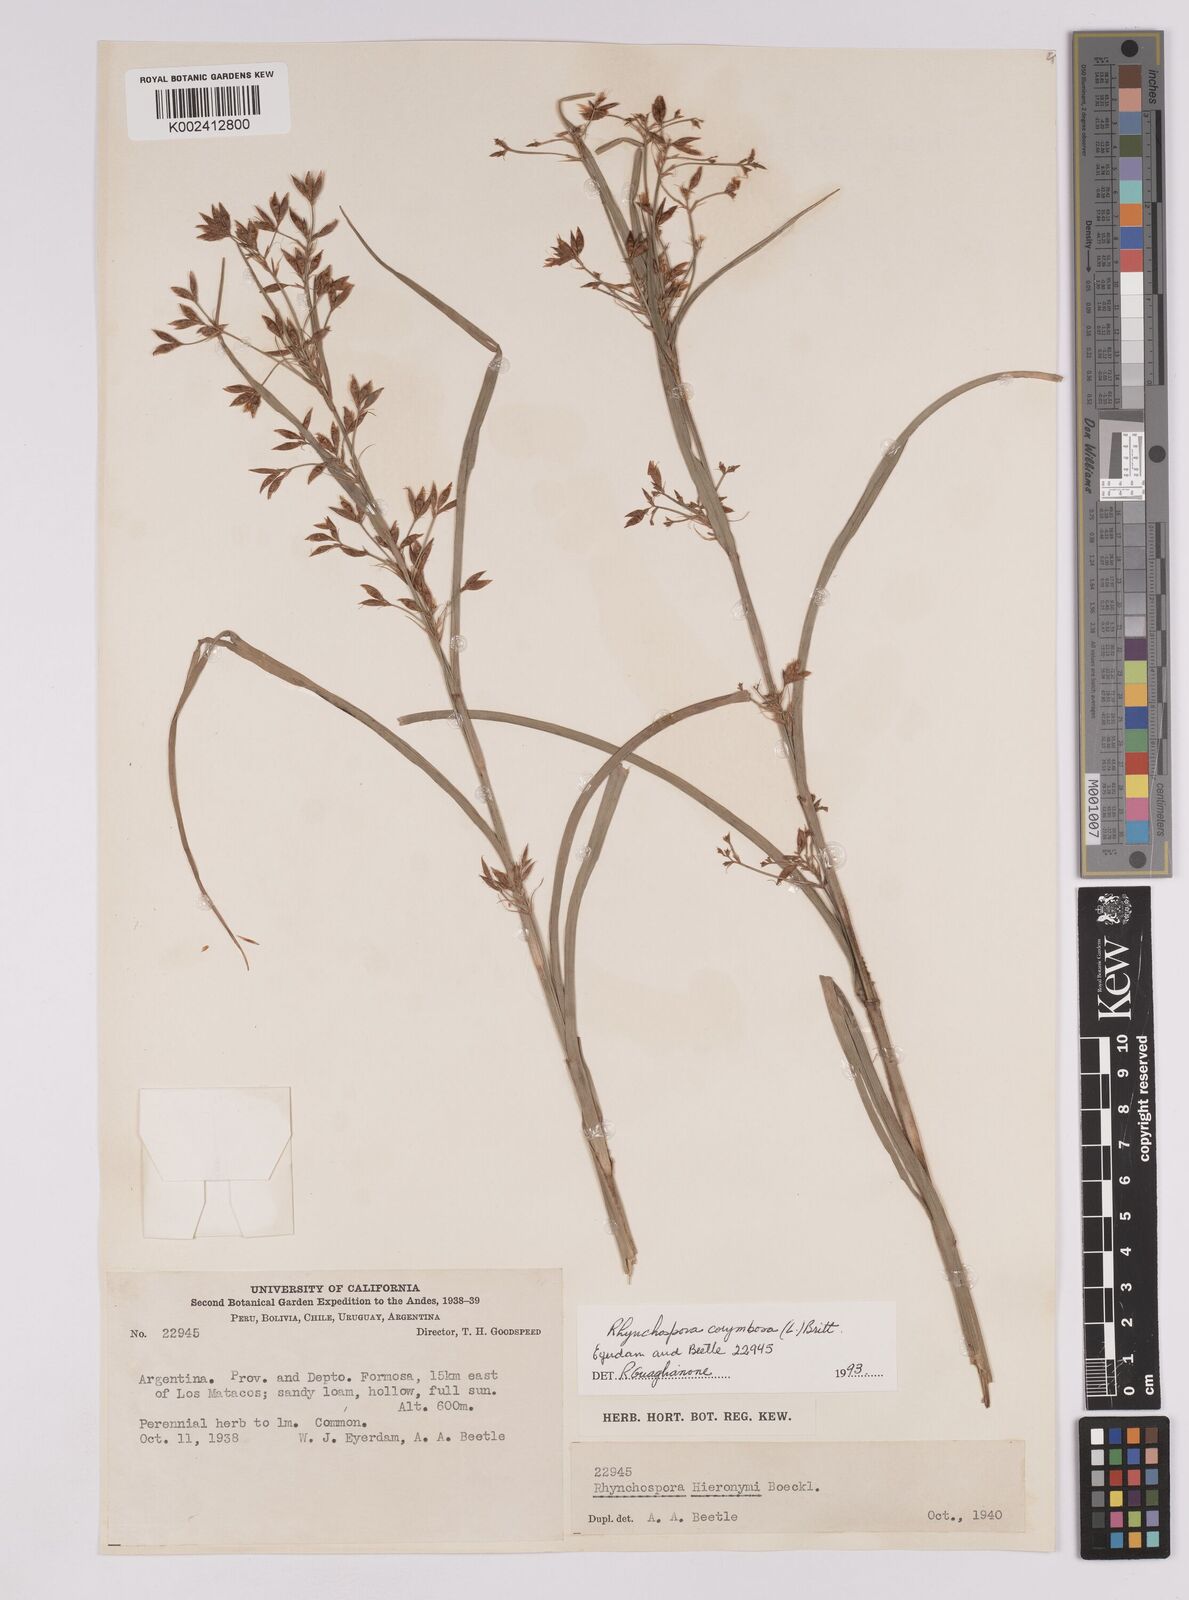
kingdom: Plantae
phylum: Tracheophyta
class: Liliopsida
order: Poales
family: Cyperaceae
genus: Rhynchospora
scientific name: Rhynchospora corymbosa
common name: Golden beak sedge
